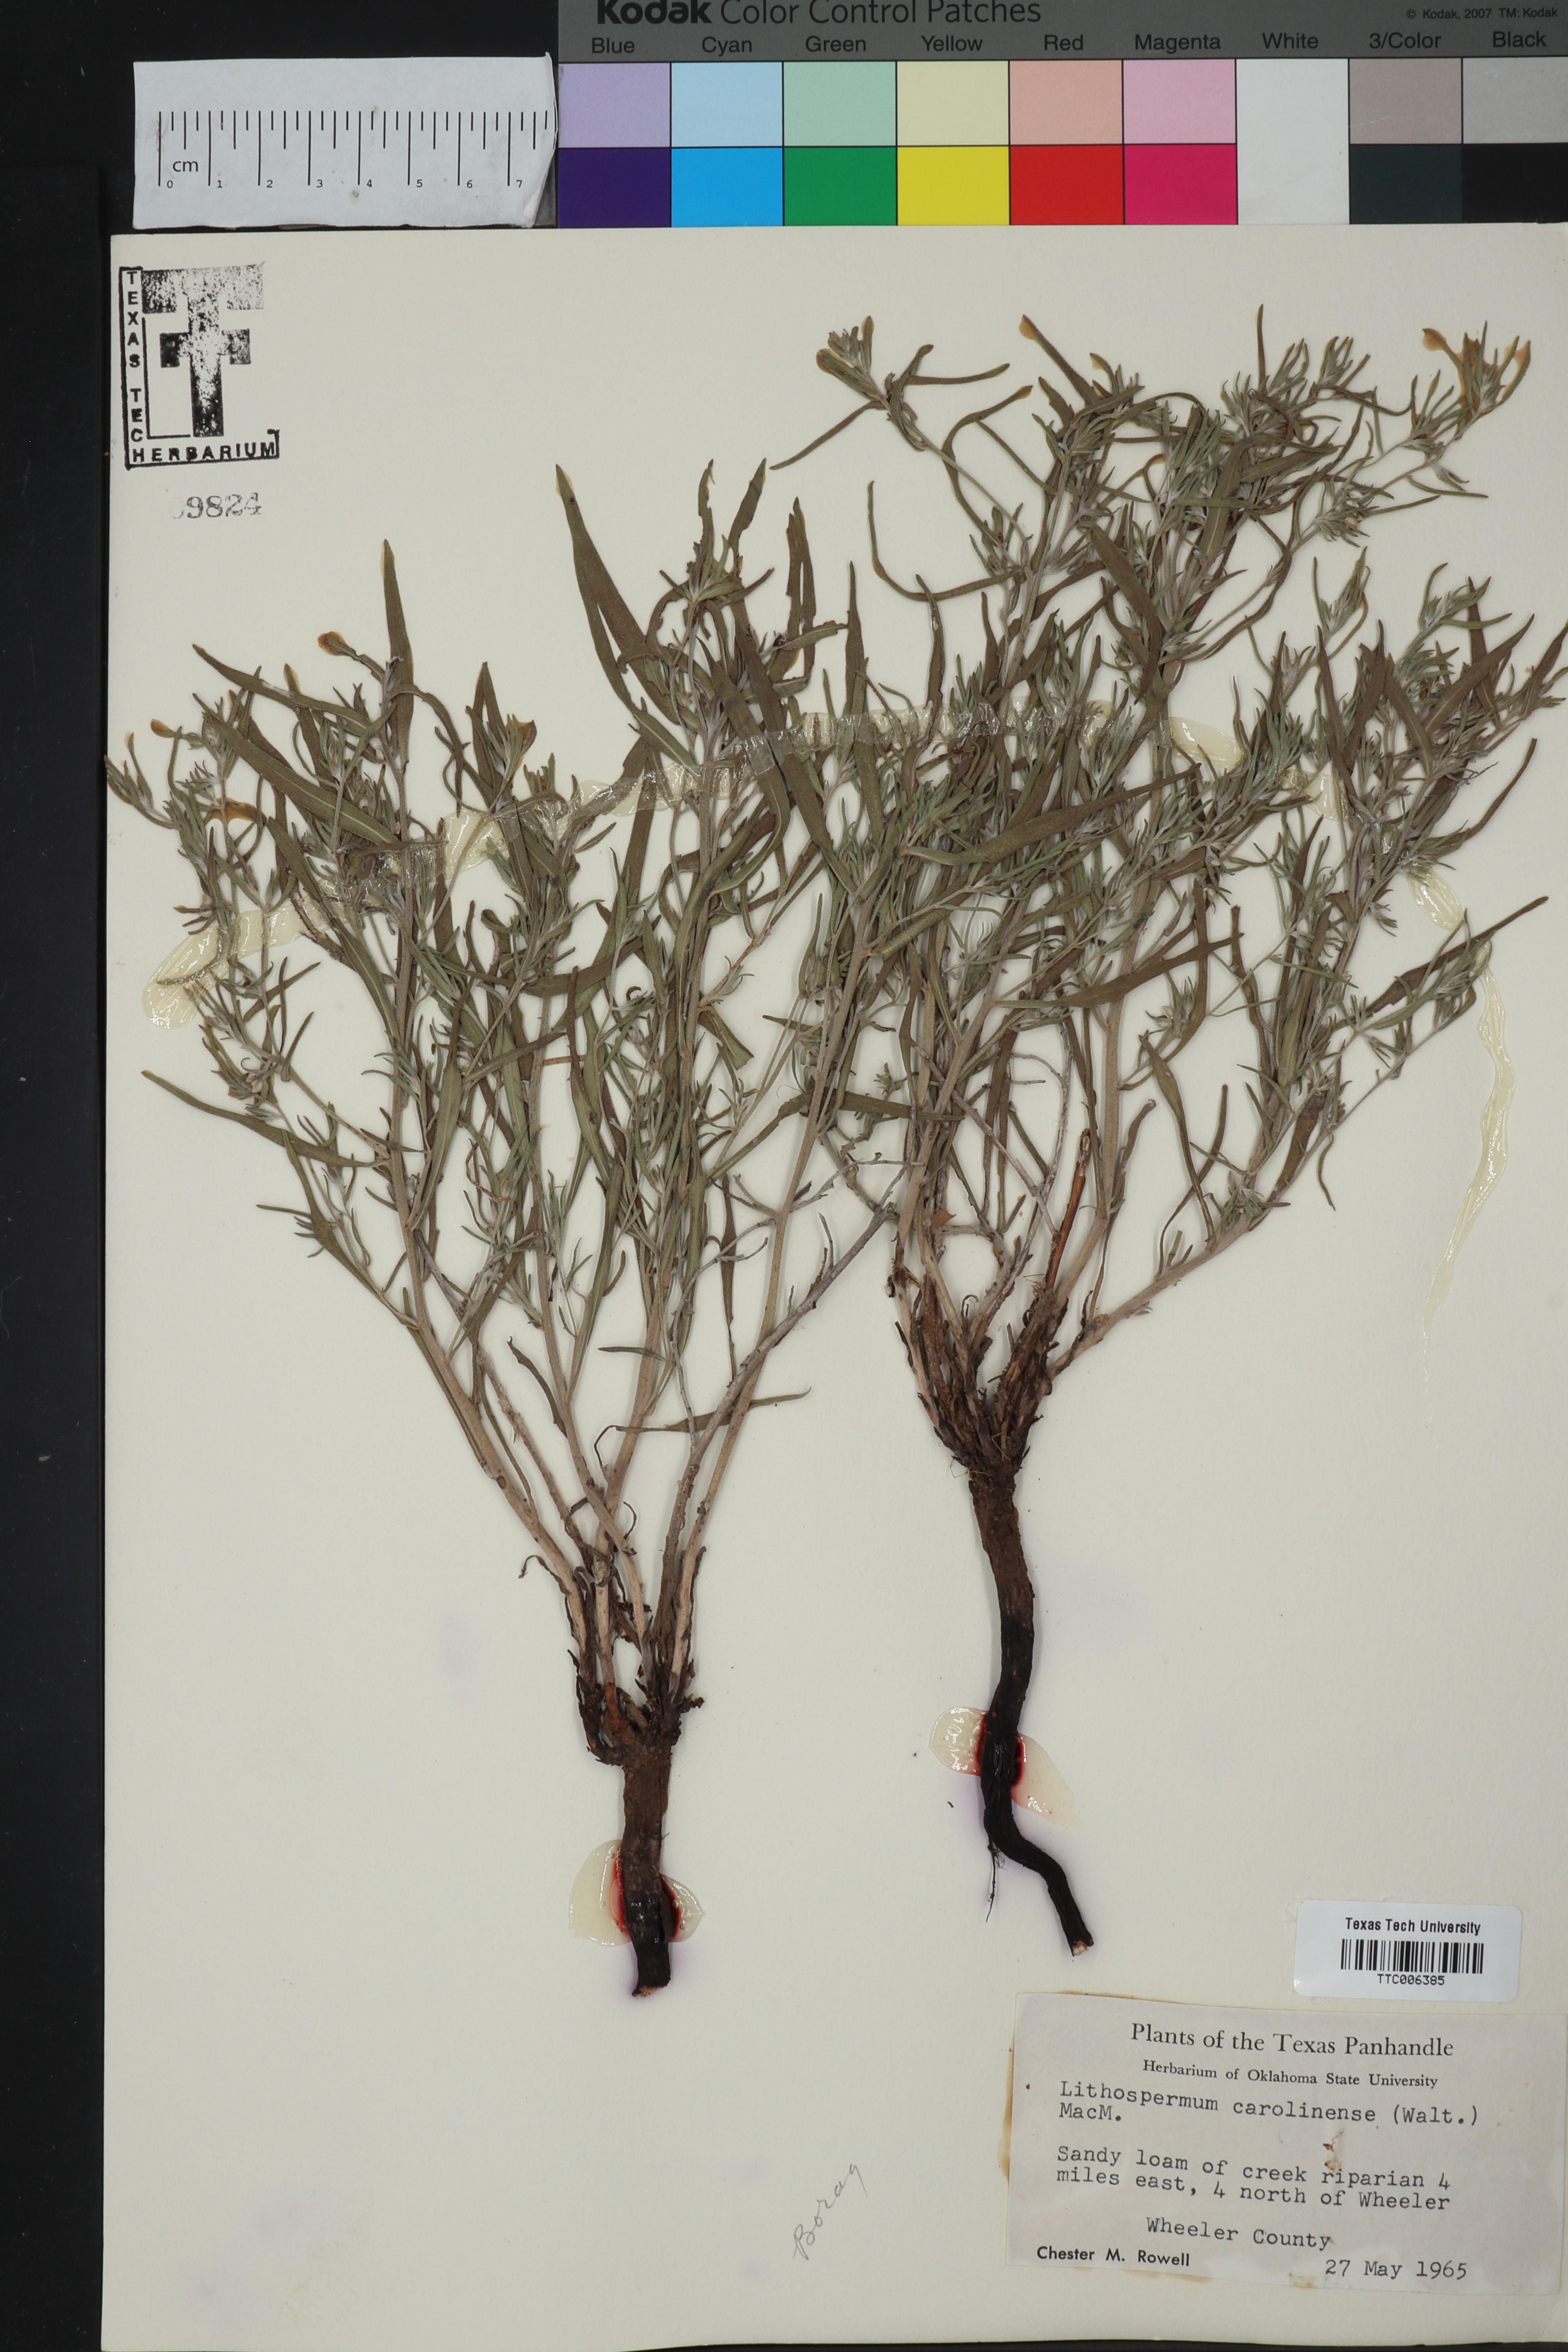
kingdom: Plantae
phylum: Tracheophyta
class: Magnoliopsida
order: Boraginales
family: Boraginaceae
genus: Lithospermum
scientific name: Lithospermum carolinense
